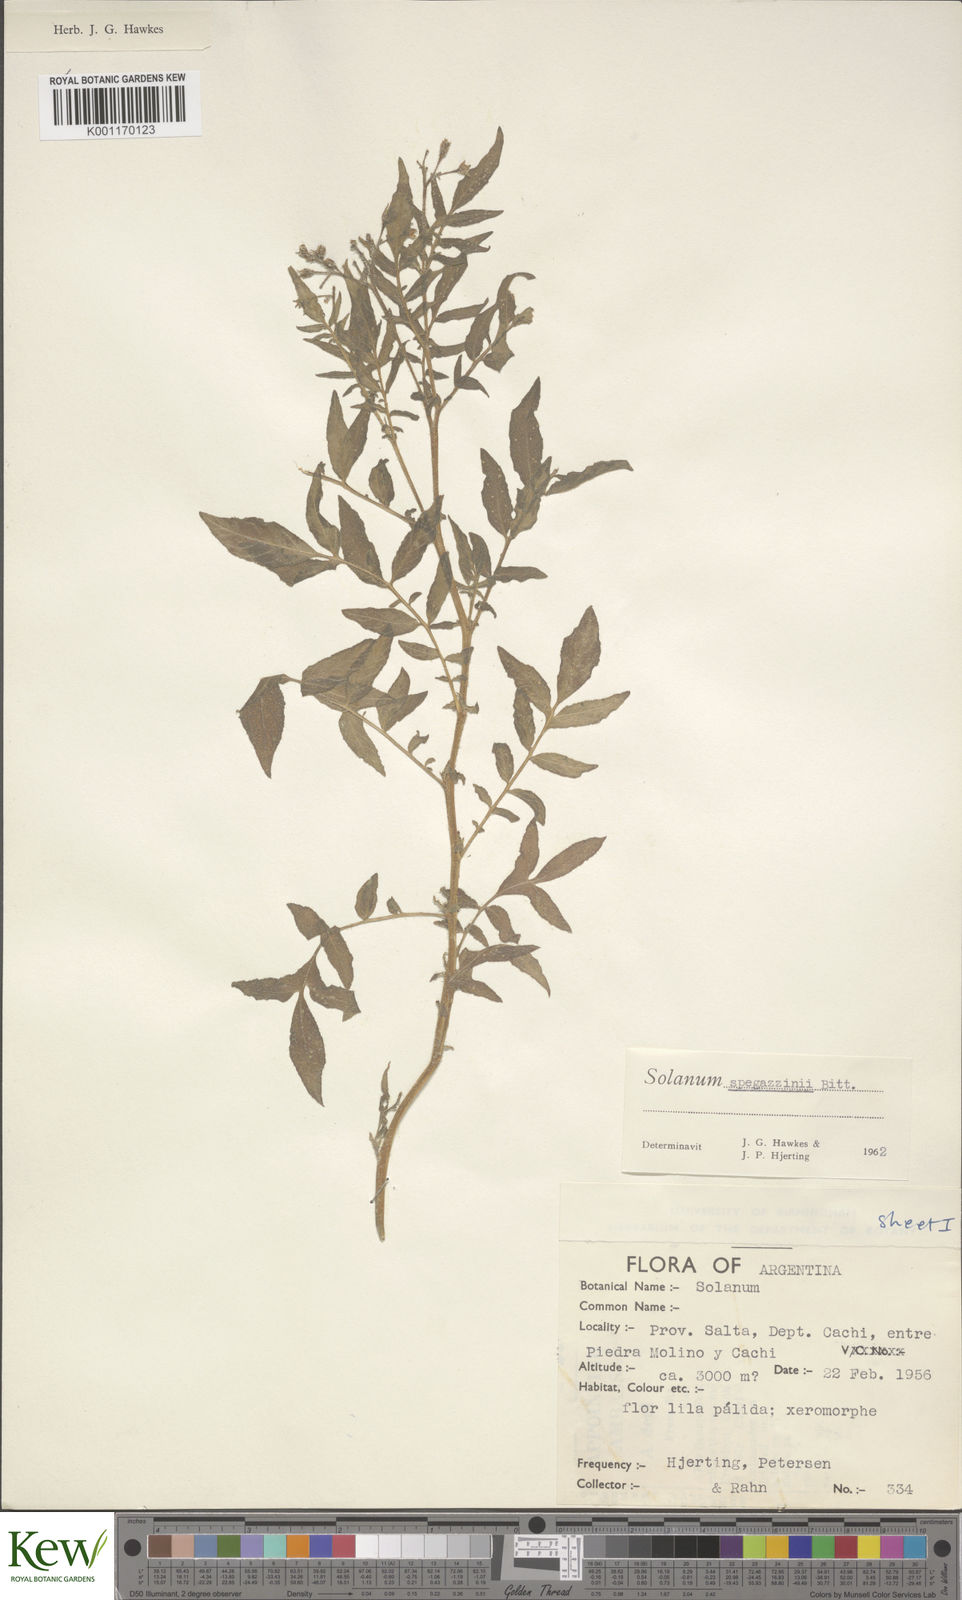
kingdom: Plantae
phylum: Tracheophyta
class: Magnoliopsida
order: Solanales
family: Solanaceae
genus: Solanum
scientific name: Solanum brevicaule
